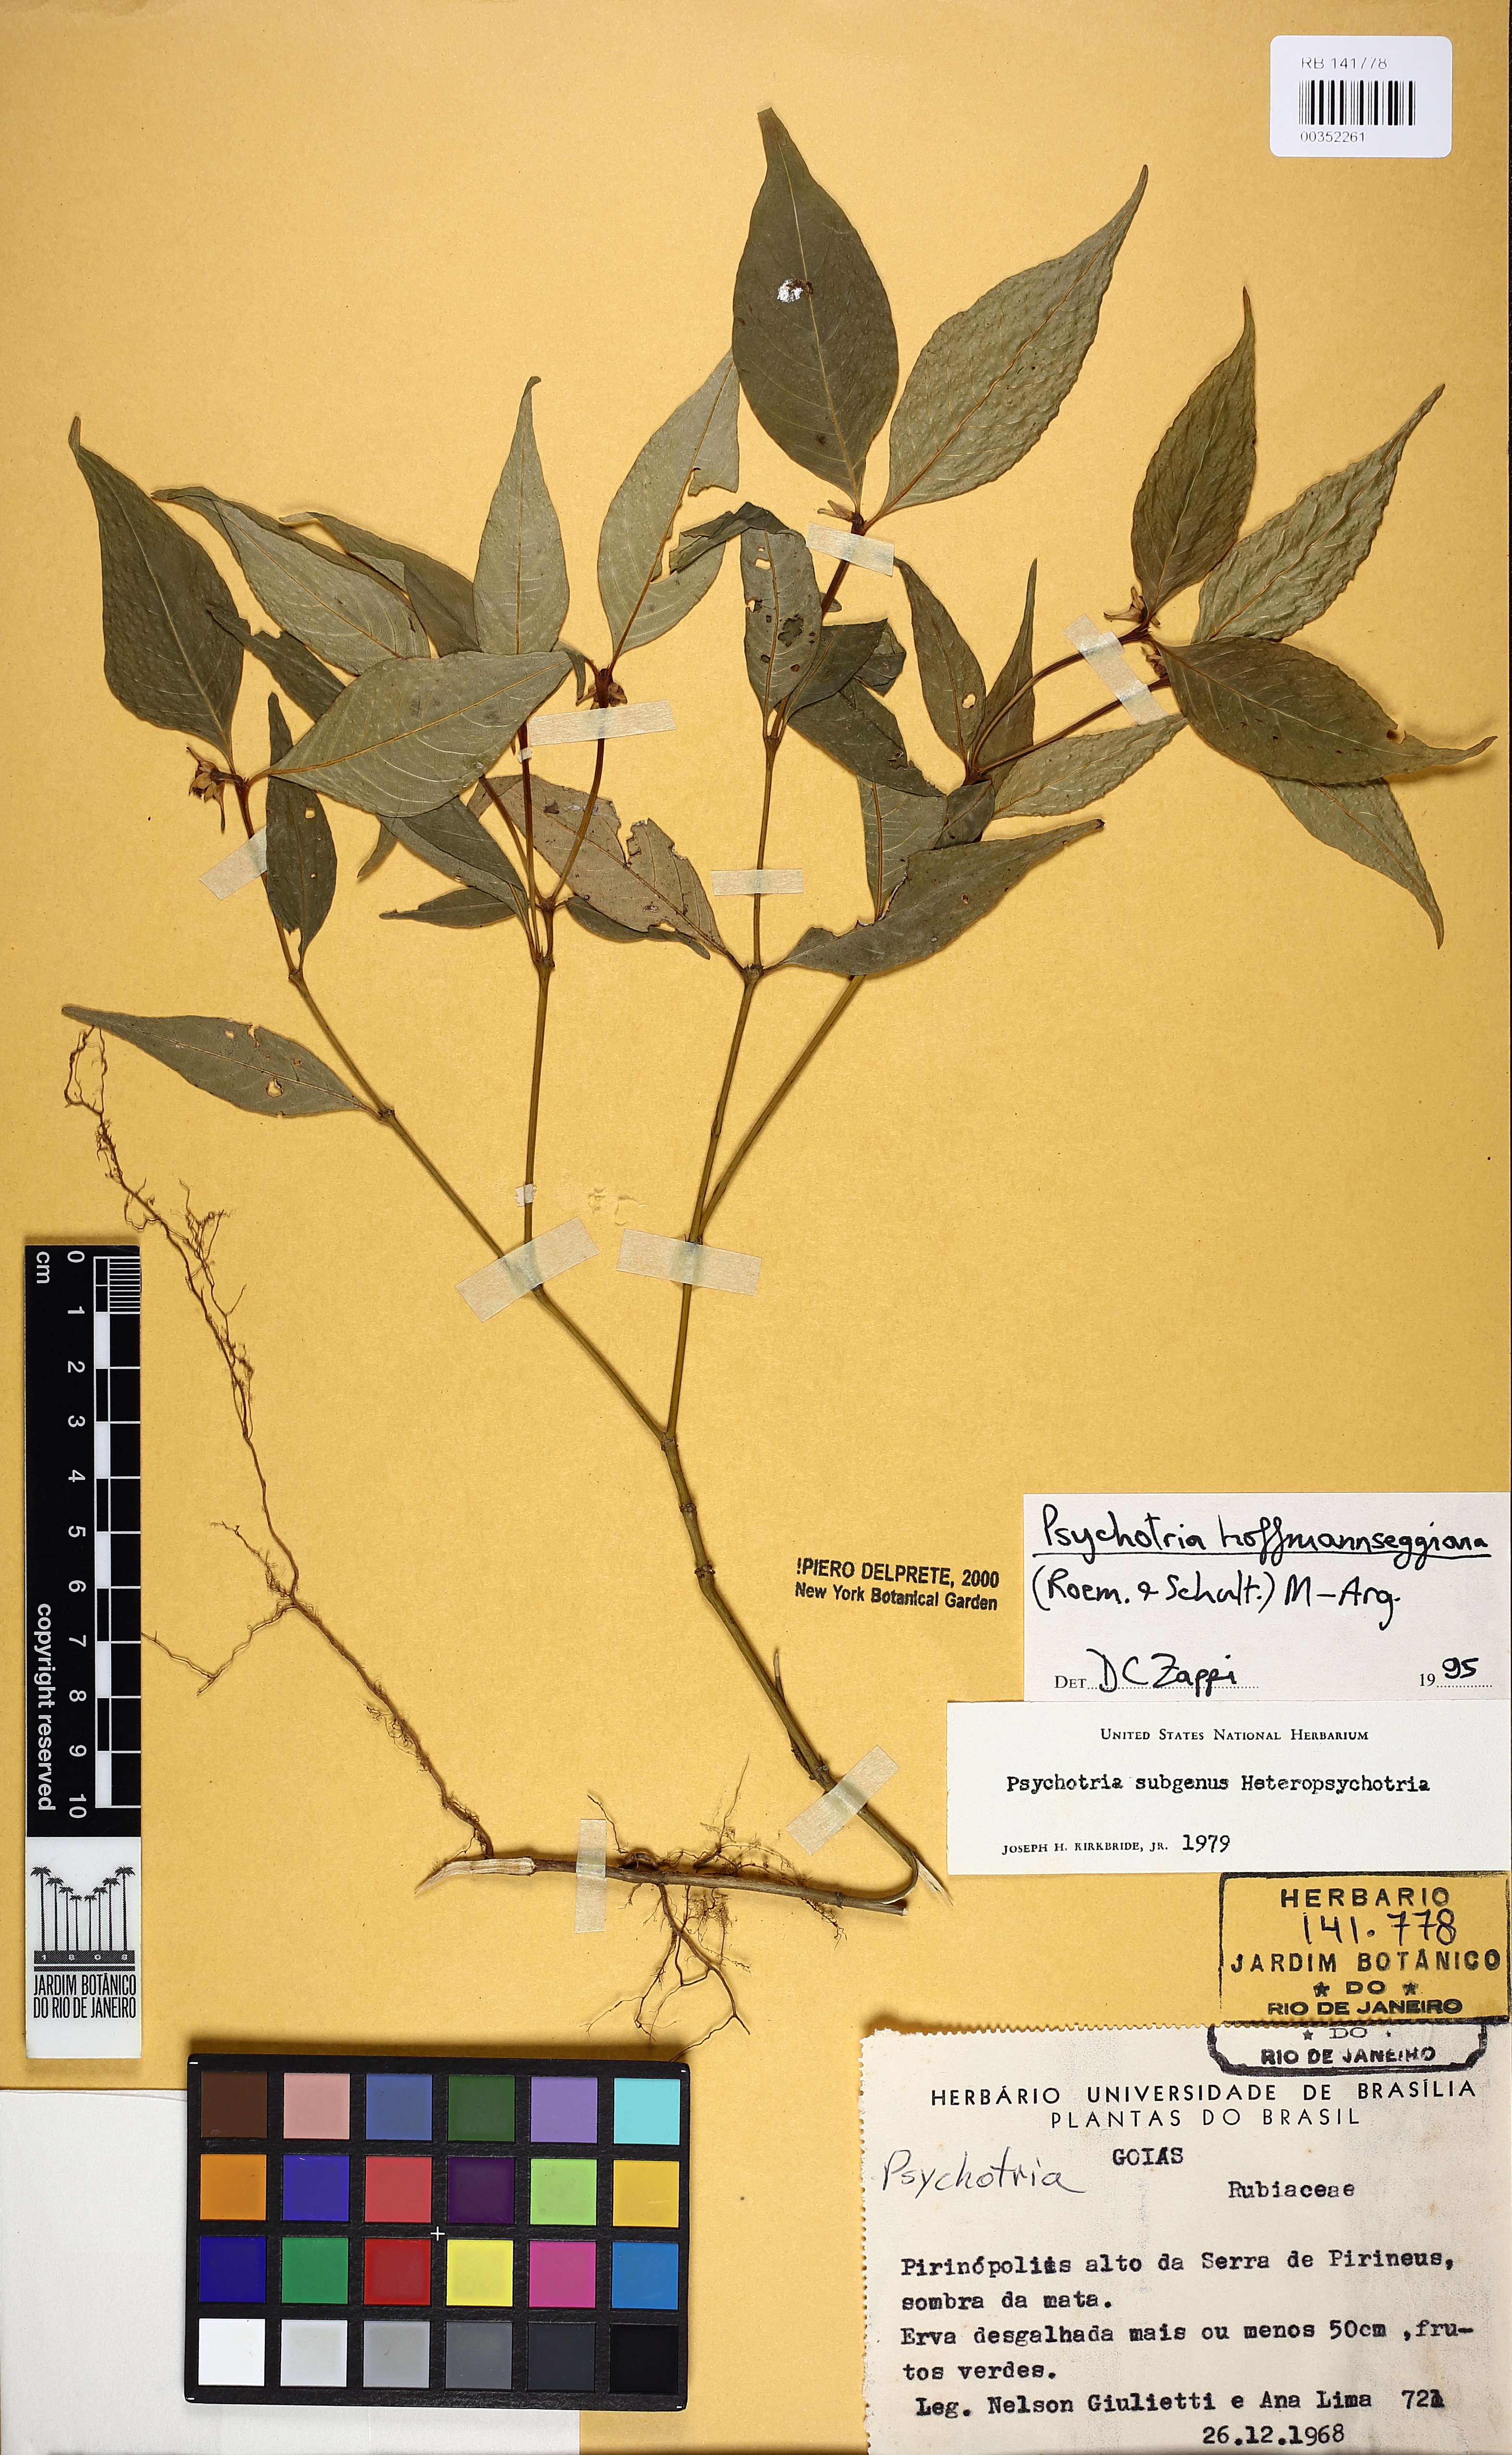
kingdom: Plantae
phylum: Tracheophyta
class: Magnoliopsida
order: Gentianales
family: Rubiaceae
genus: Palicourea
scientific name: Palicourea hoffmannseggiana
